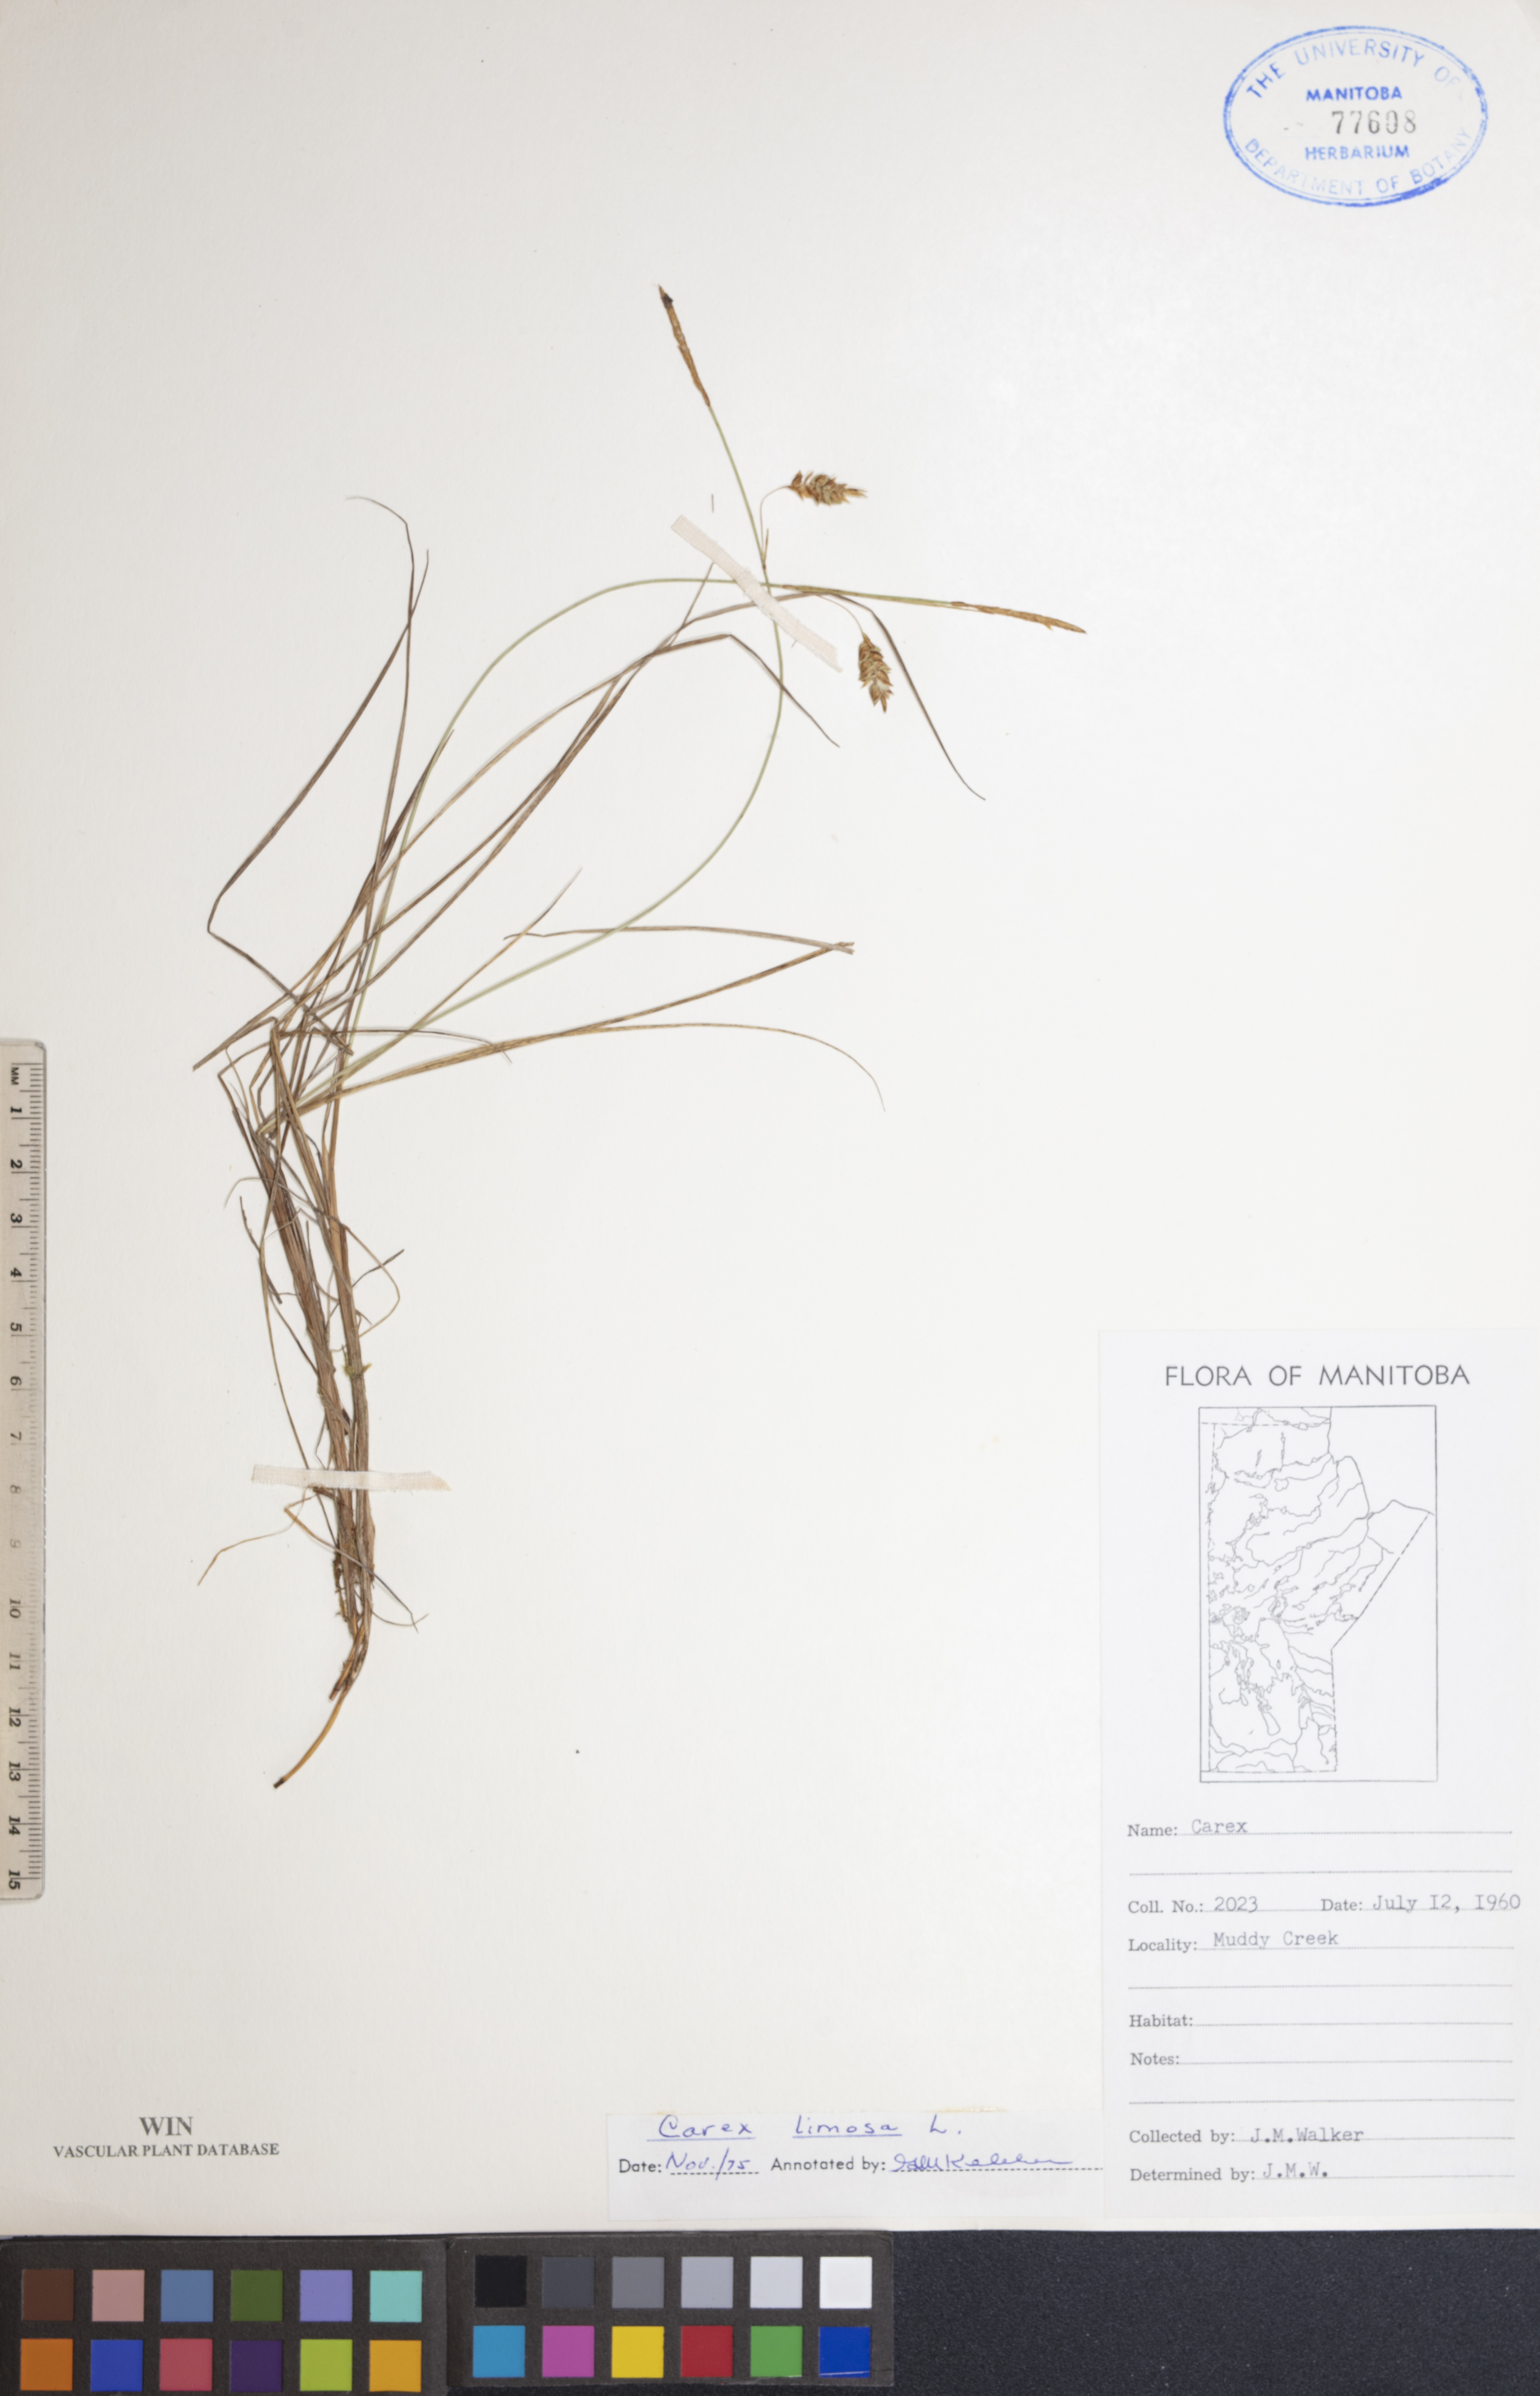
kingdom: Plantae
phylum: Tracheophyta
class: Liliopsida
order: Poales
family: Cyperaceae
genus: Carex
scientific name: Carex limosa
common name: Bog sedge
